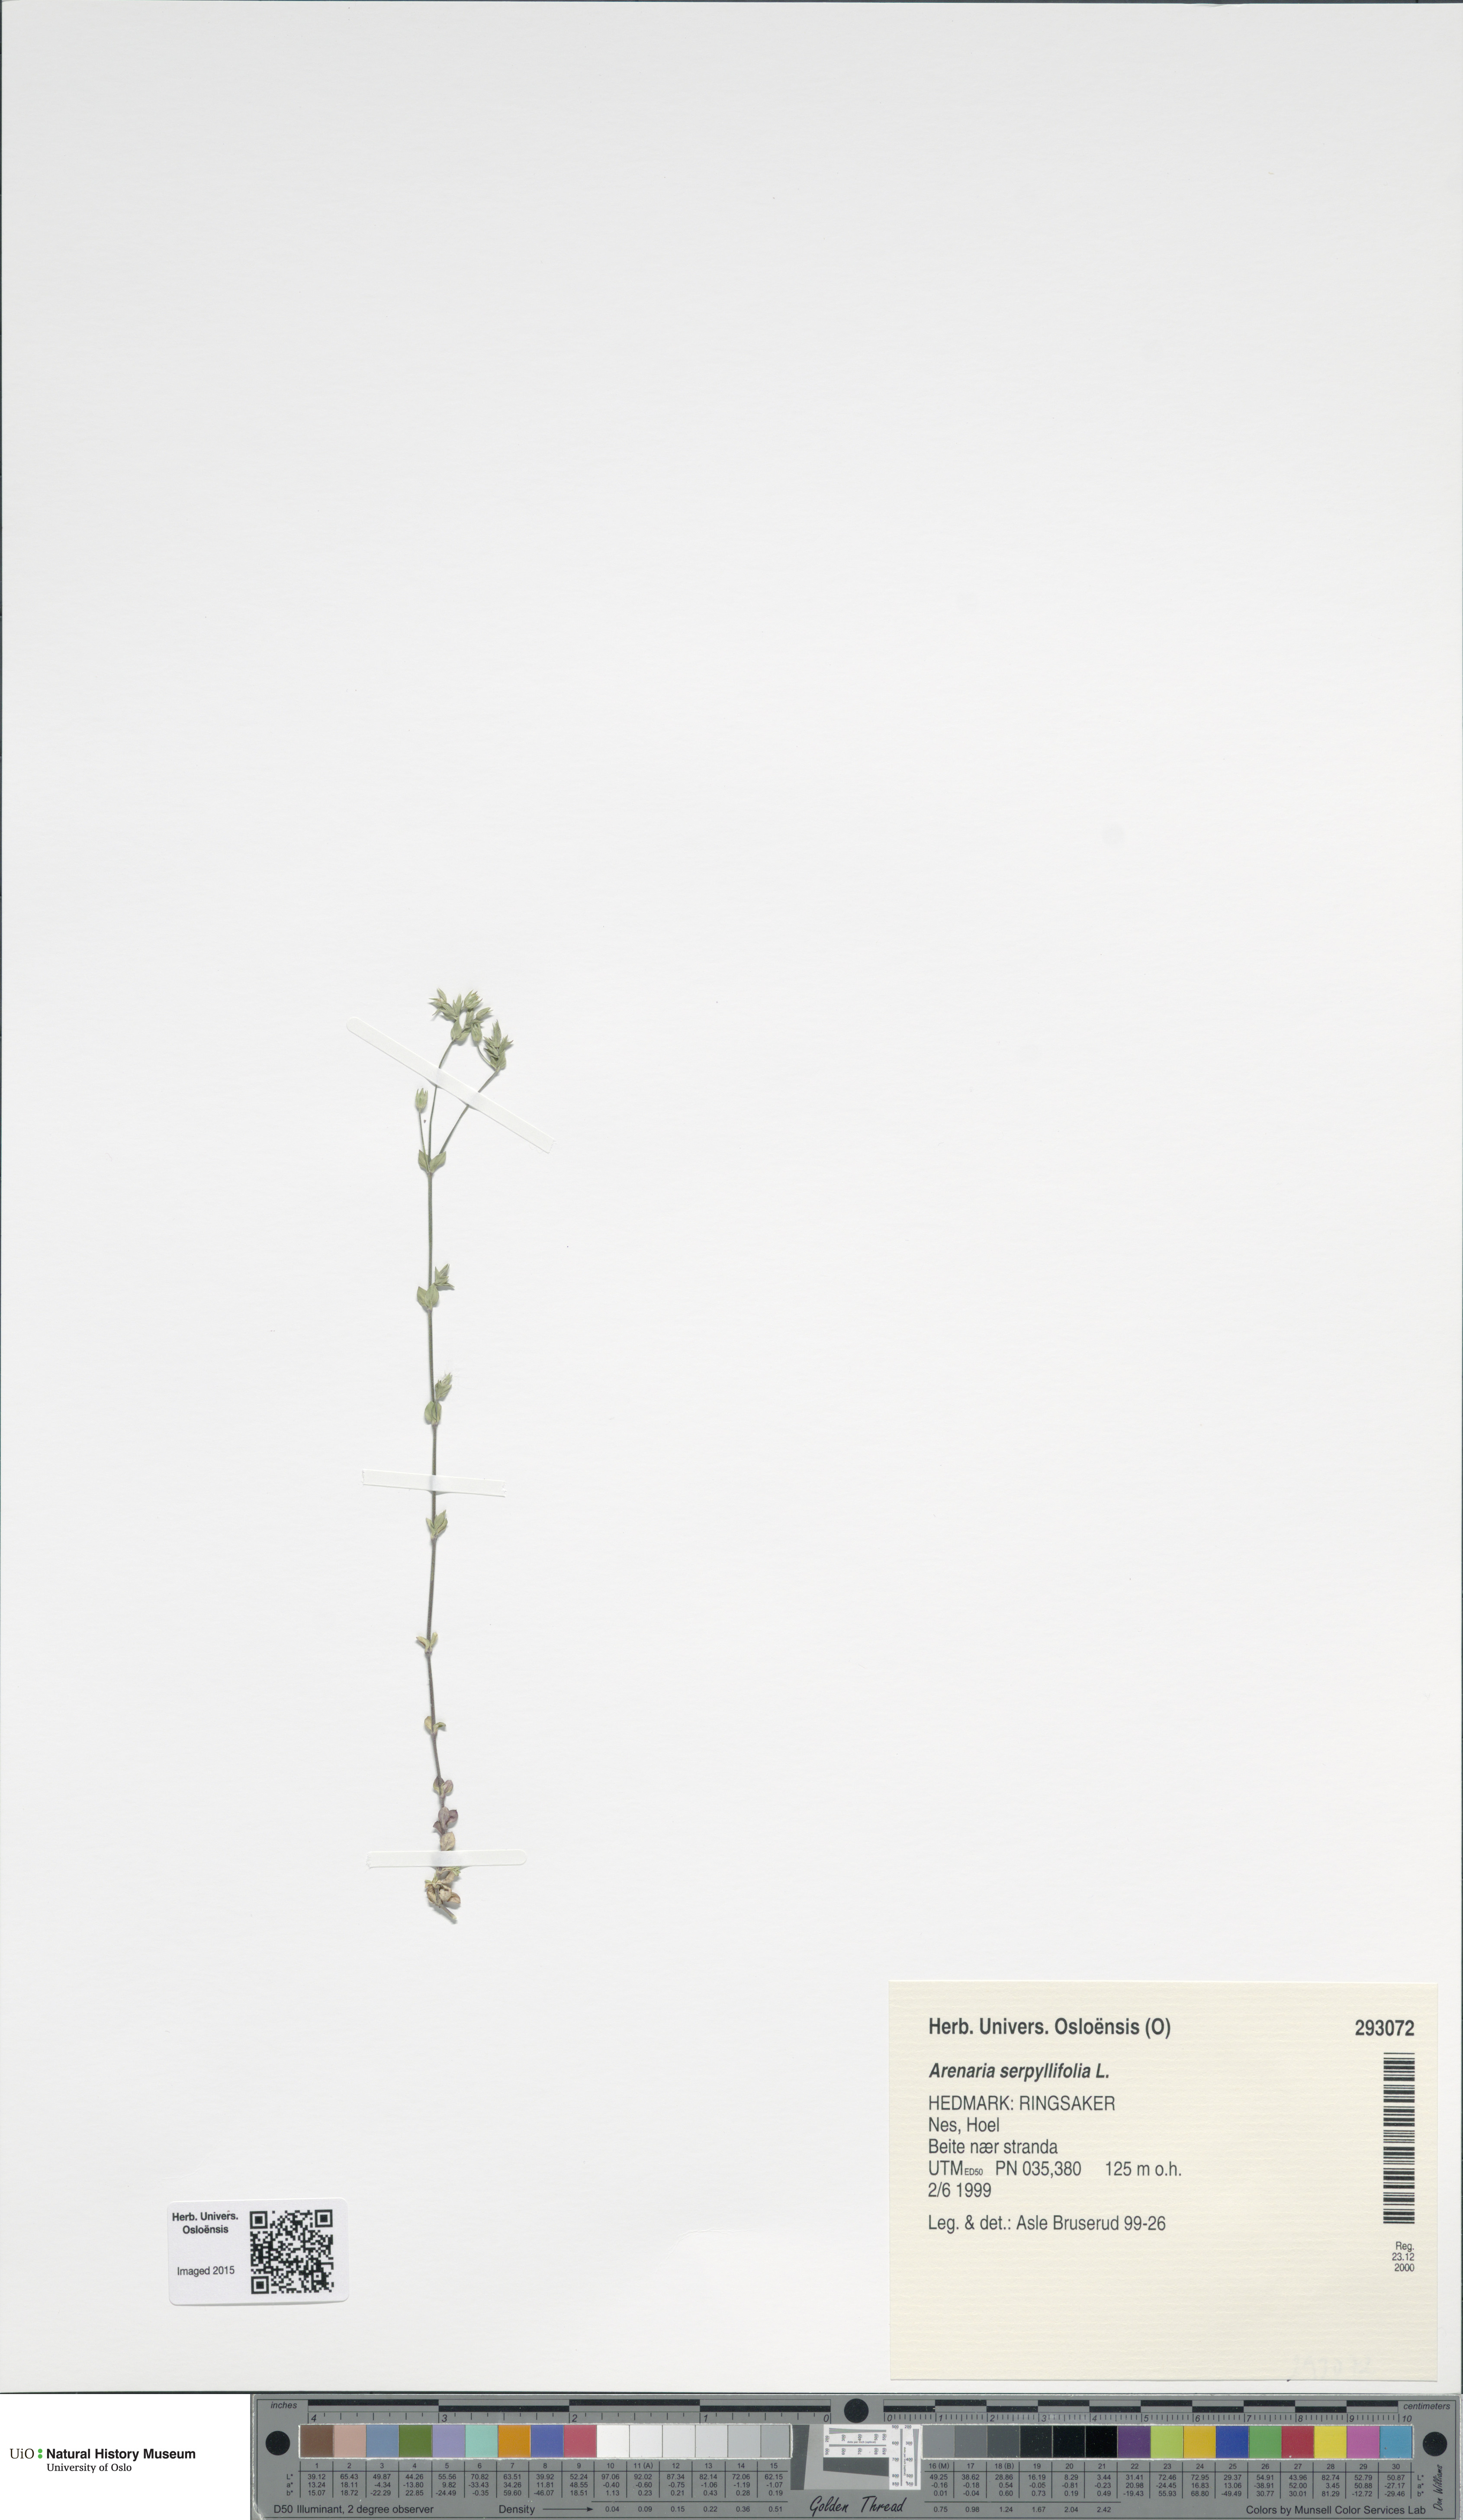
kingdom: Plantae
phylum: Tracheophyta
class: Magnoliopsida
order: Caryophyllales
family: Caryophyllaceae
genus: Arenaria
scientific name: Arenaria serpyllifolia
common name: Thyme-leaved sandwort
